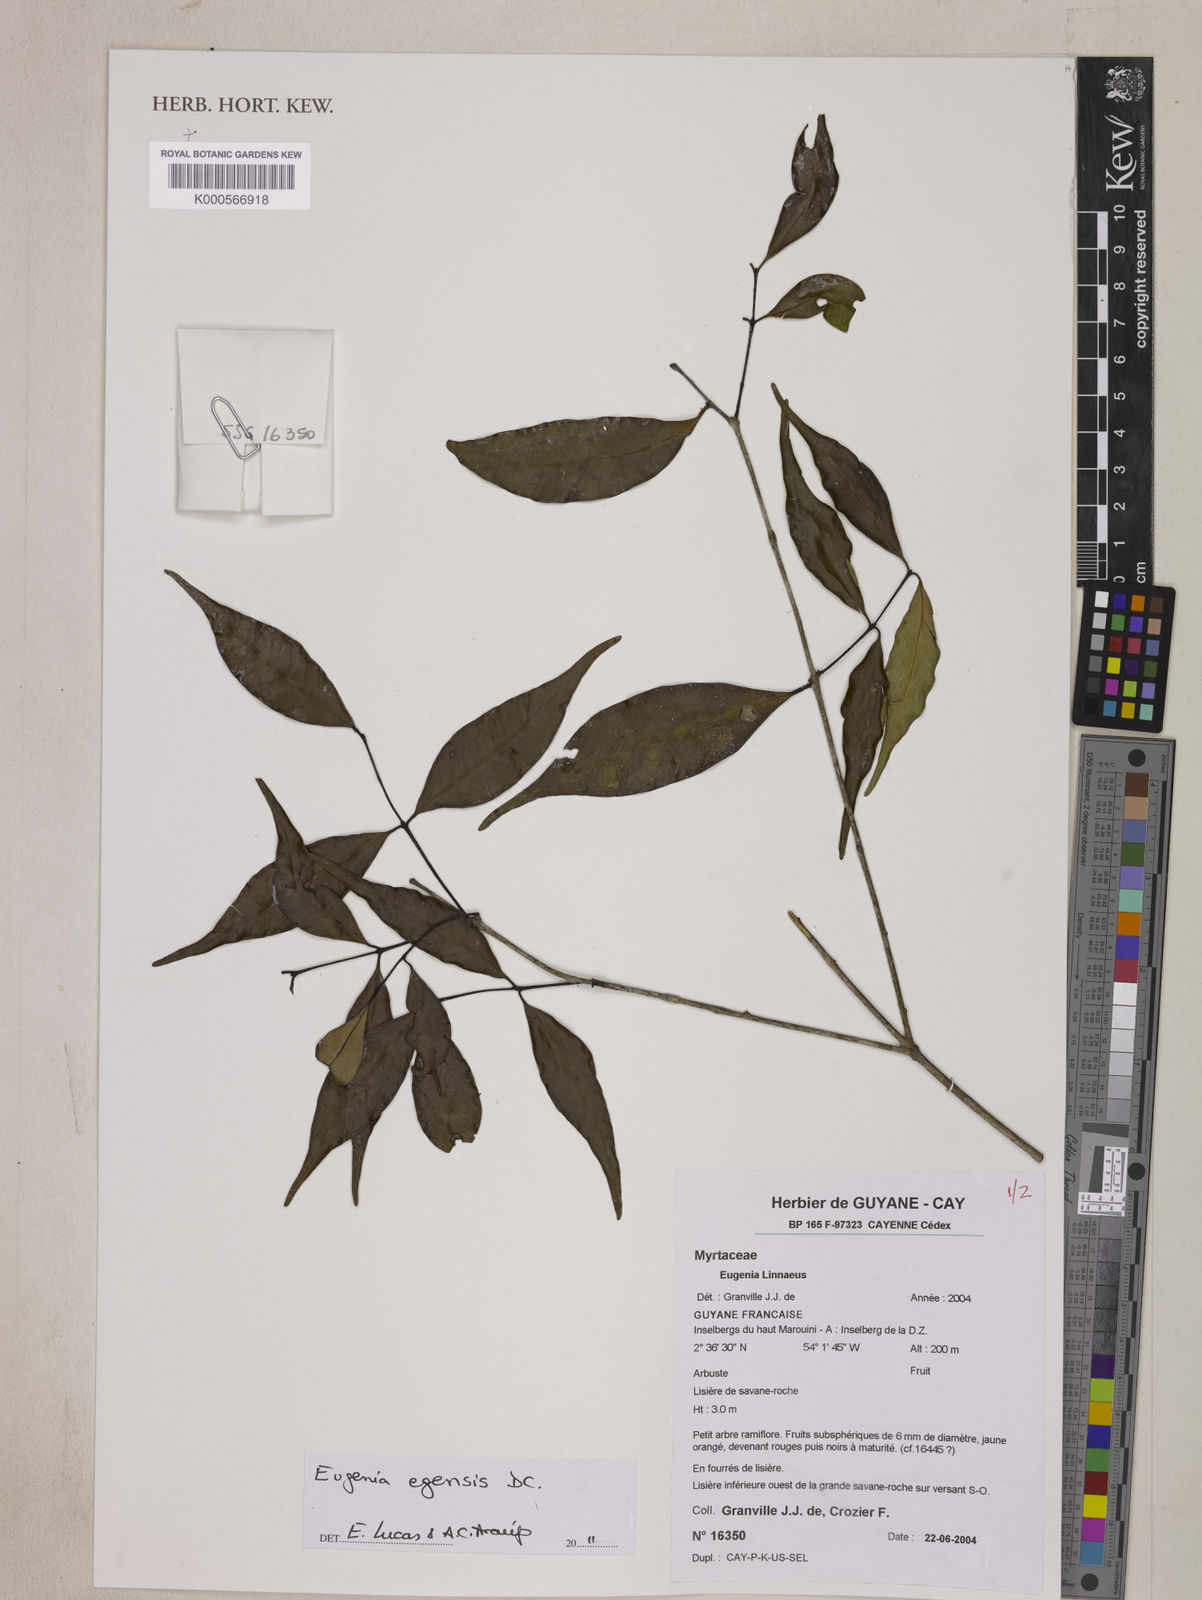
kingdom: Plantae
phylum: Tracheophyta
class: Magnoliopsida
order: Myrtales
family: Myrtaceae
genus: Eugenia
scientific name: Eugenia egensis
